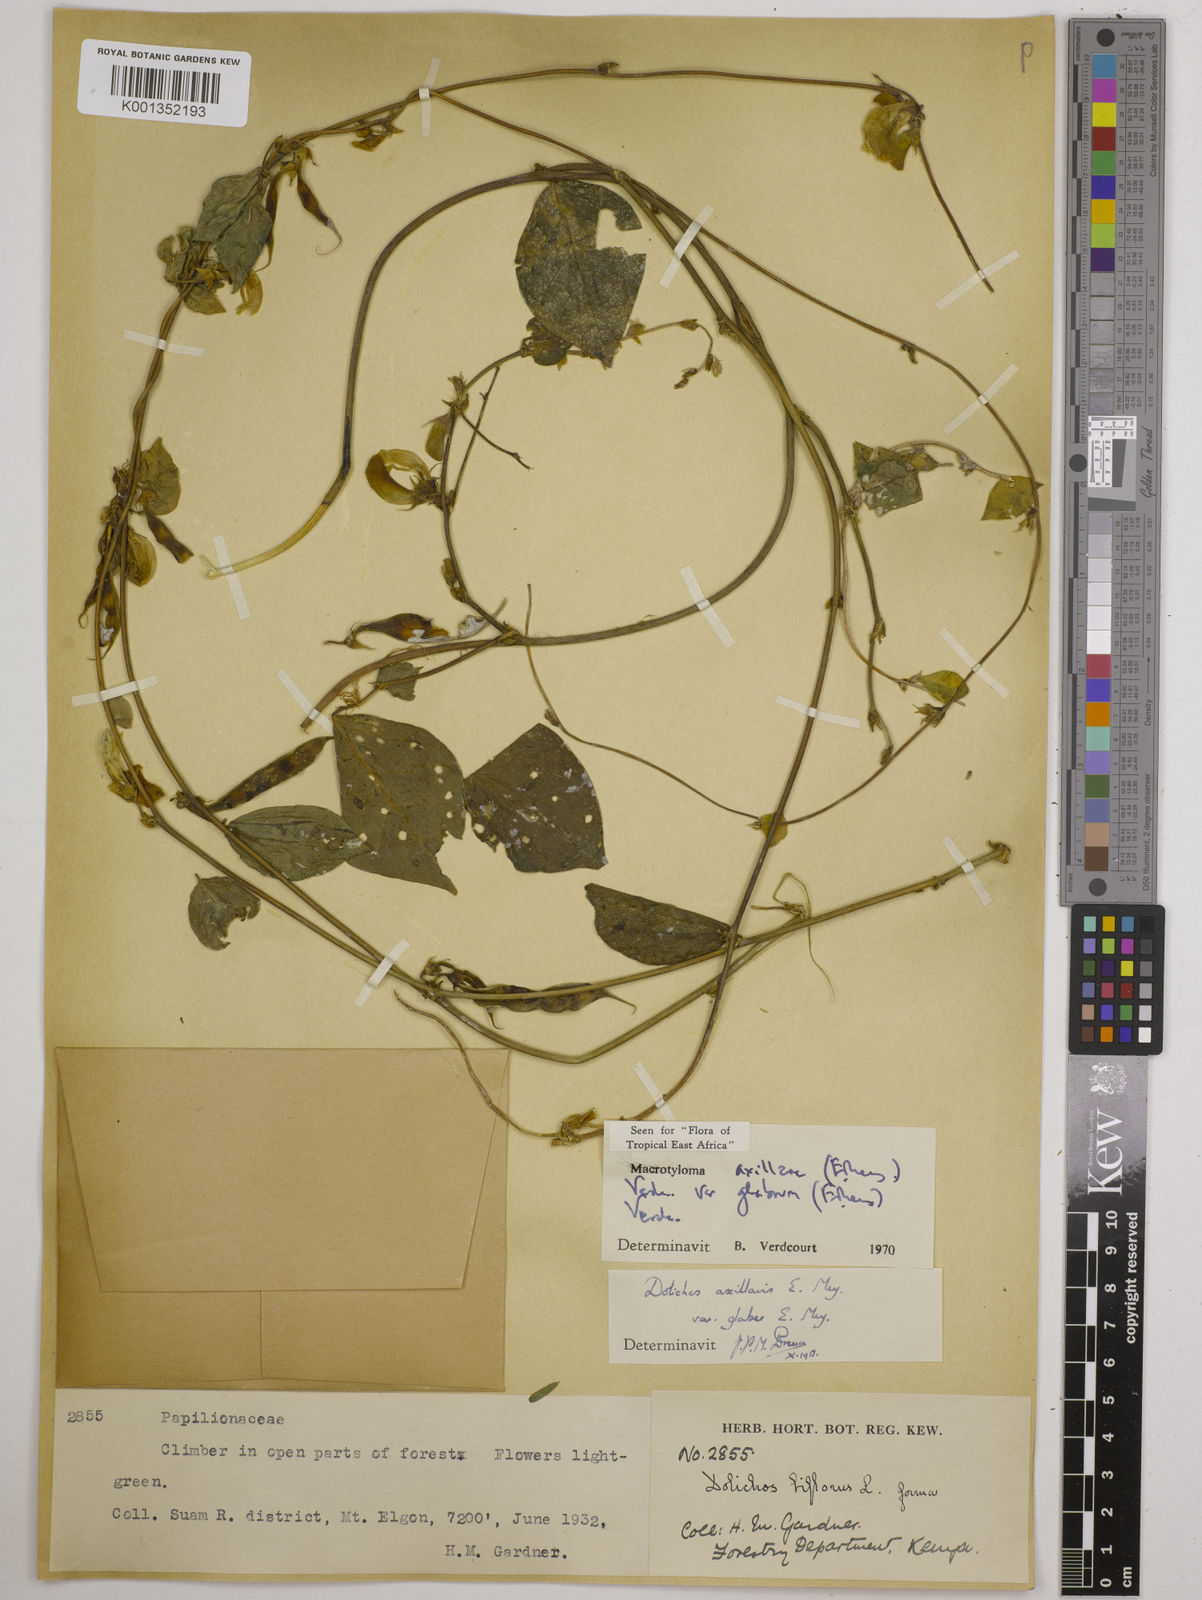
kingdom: Plantae
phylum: Tracheophyta
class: Magnoliopsida
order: Fabales
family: Fabaceae
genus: Macrotyloma
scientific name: Macrotyloma
